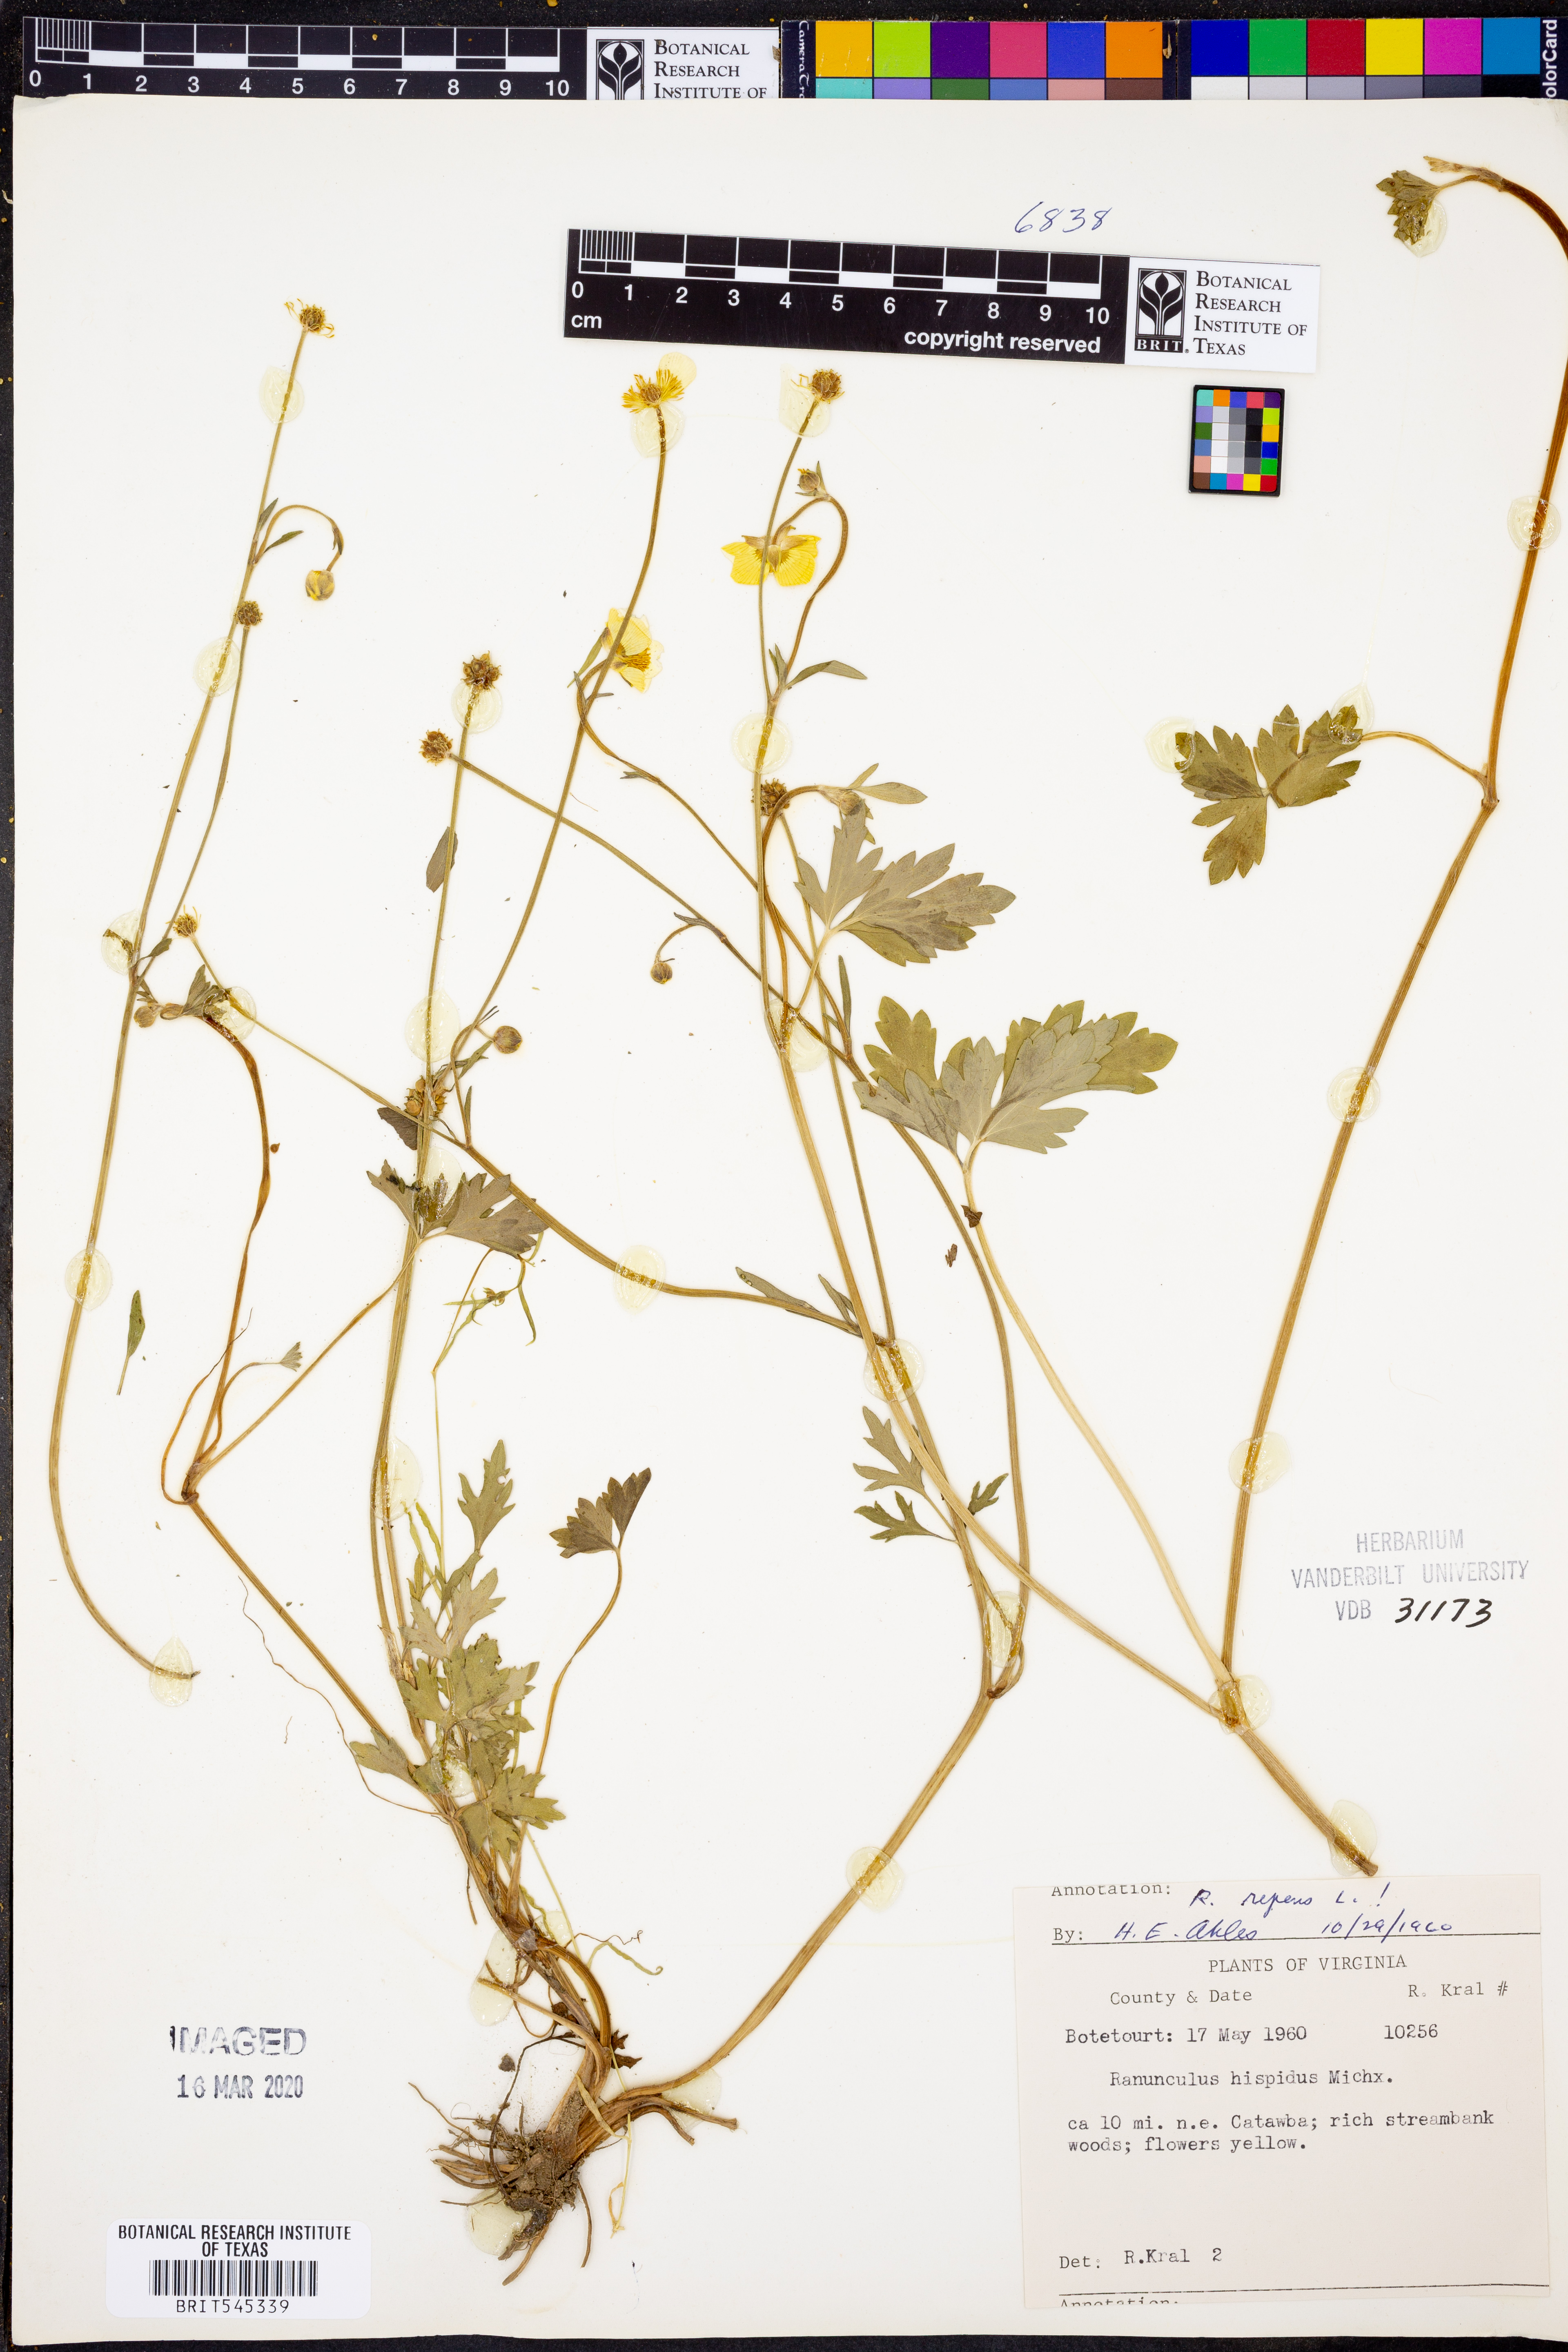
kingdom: Plantae
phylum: Tracheophyta
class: Magnoliopsida
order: Ranunculales
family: Ranunculaceae
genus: Ranunculus
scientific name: Ranunculus repens
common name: Creeping buttercup
